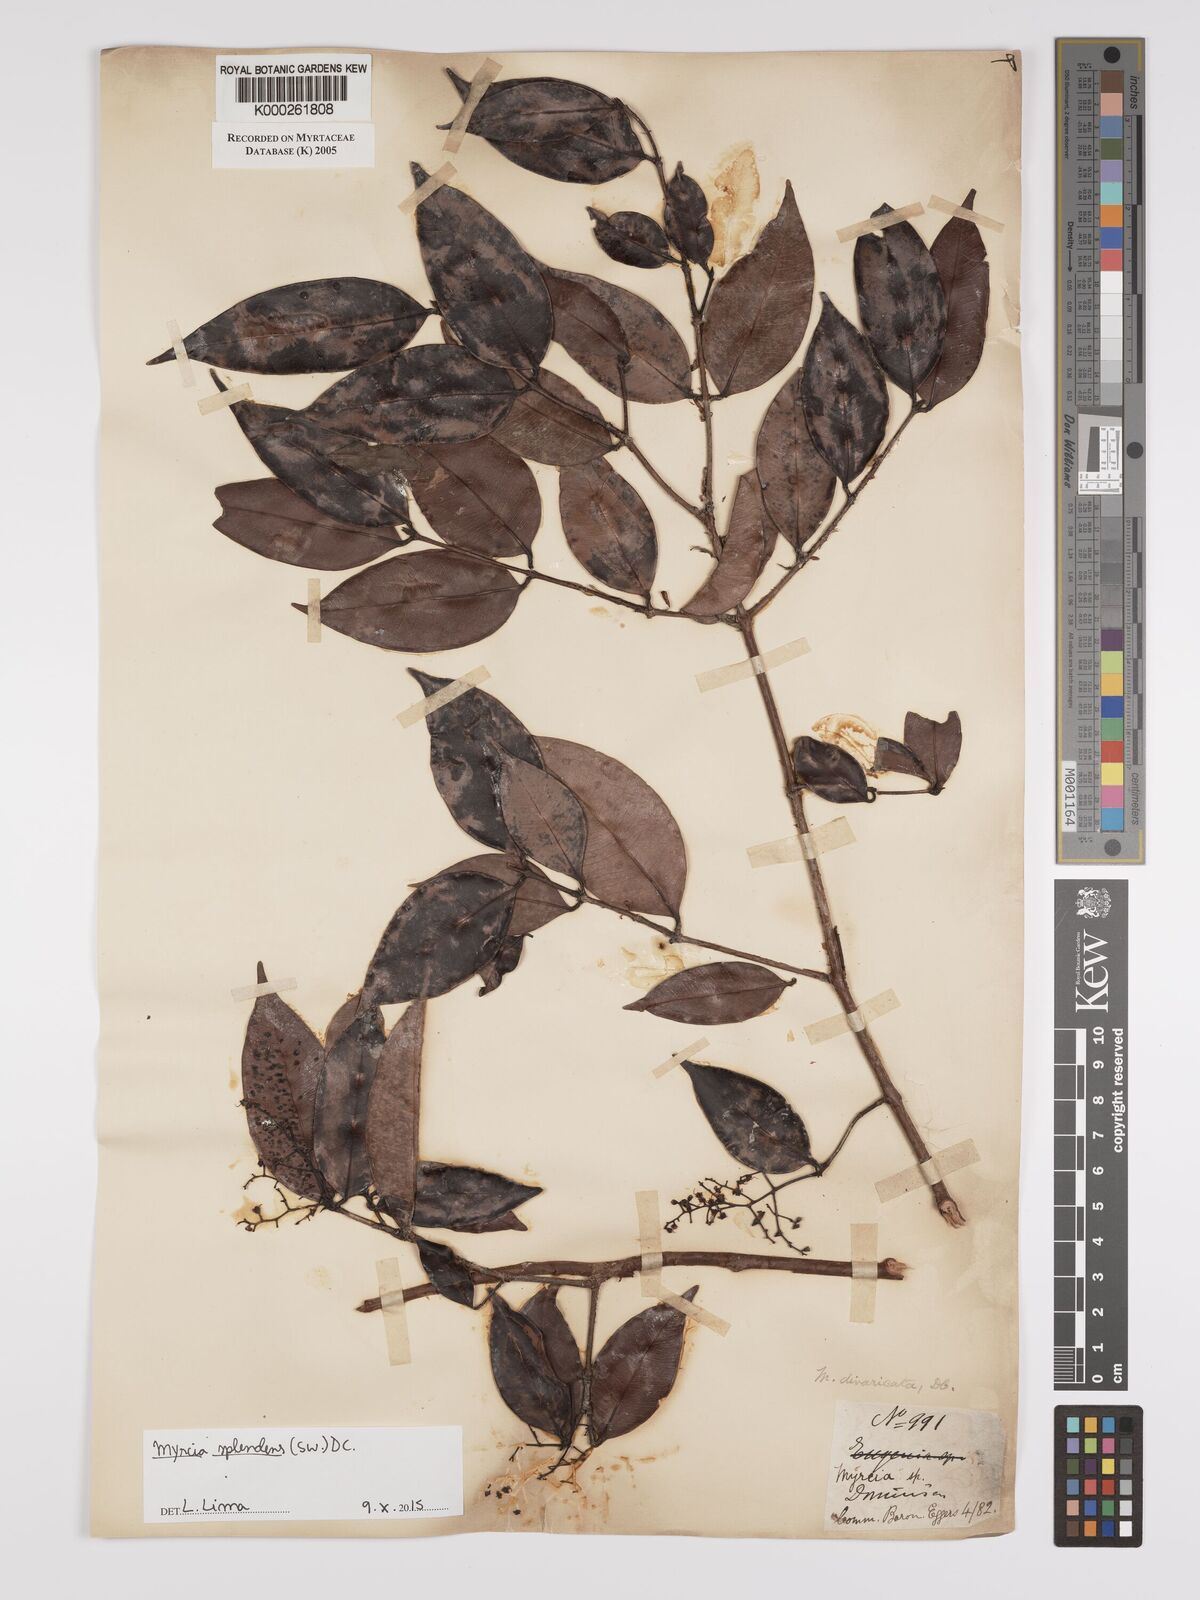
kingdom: Plantae
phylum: Tracheophyta
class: Magnoliopsida
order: Myrtales
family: Myrtaceae
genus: Myrcia
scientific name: Myrcia splendens
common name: Surinam cherry
